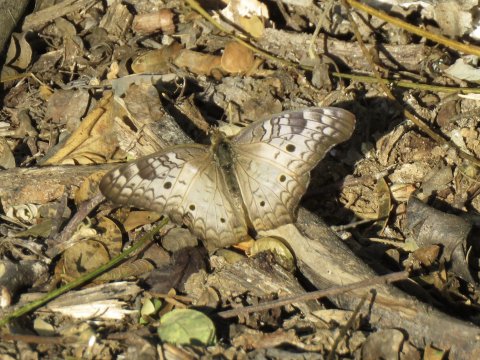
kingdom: Animalia
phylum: Arthropoda
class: Insecta
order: Lepidoptera
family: Nymphalidae
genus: Anartia
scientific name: Anartia jatrophae
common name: White Peacock
